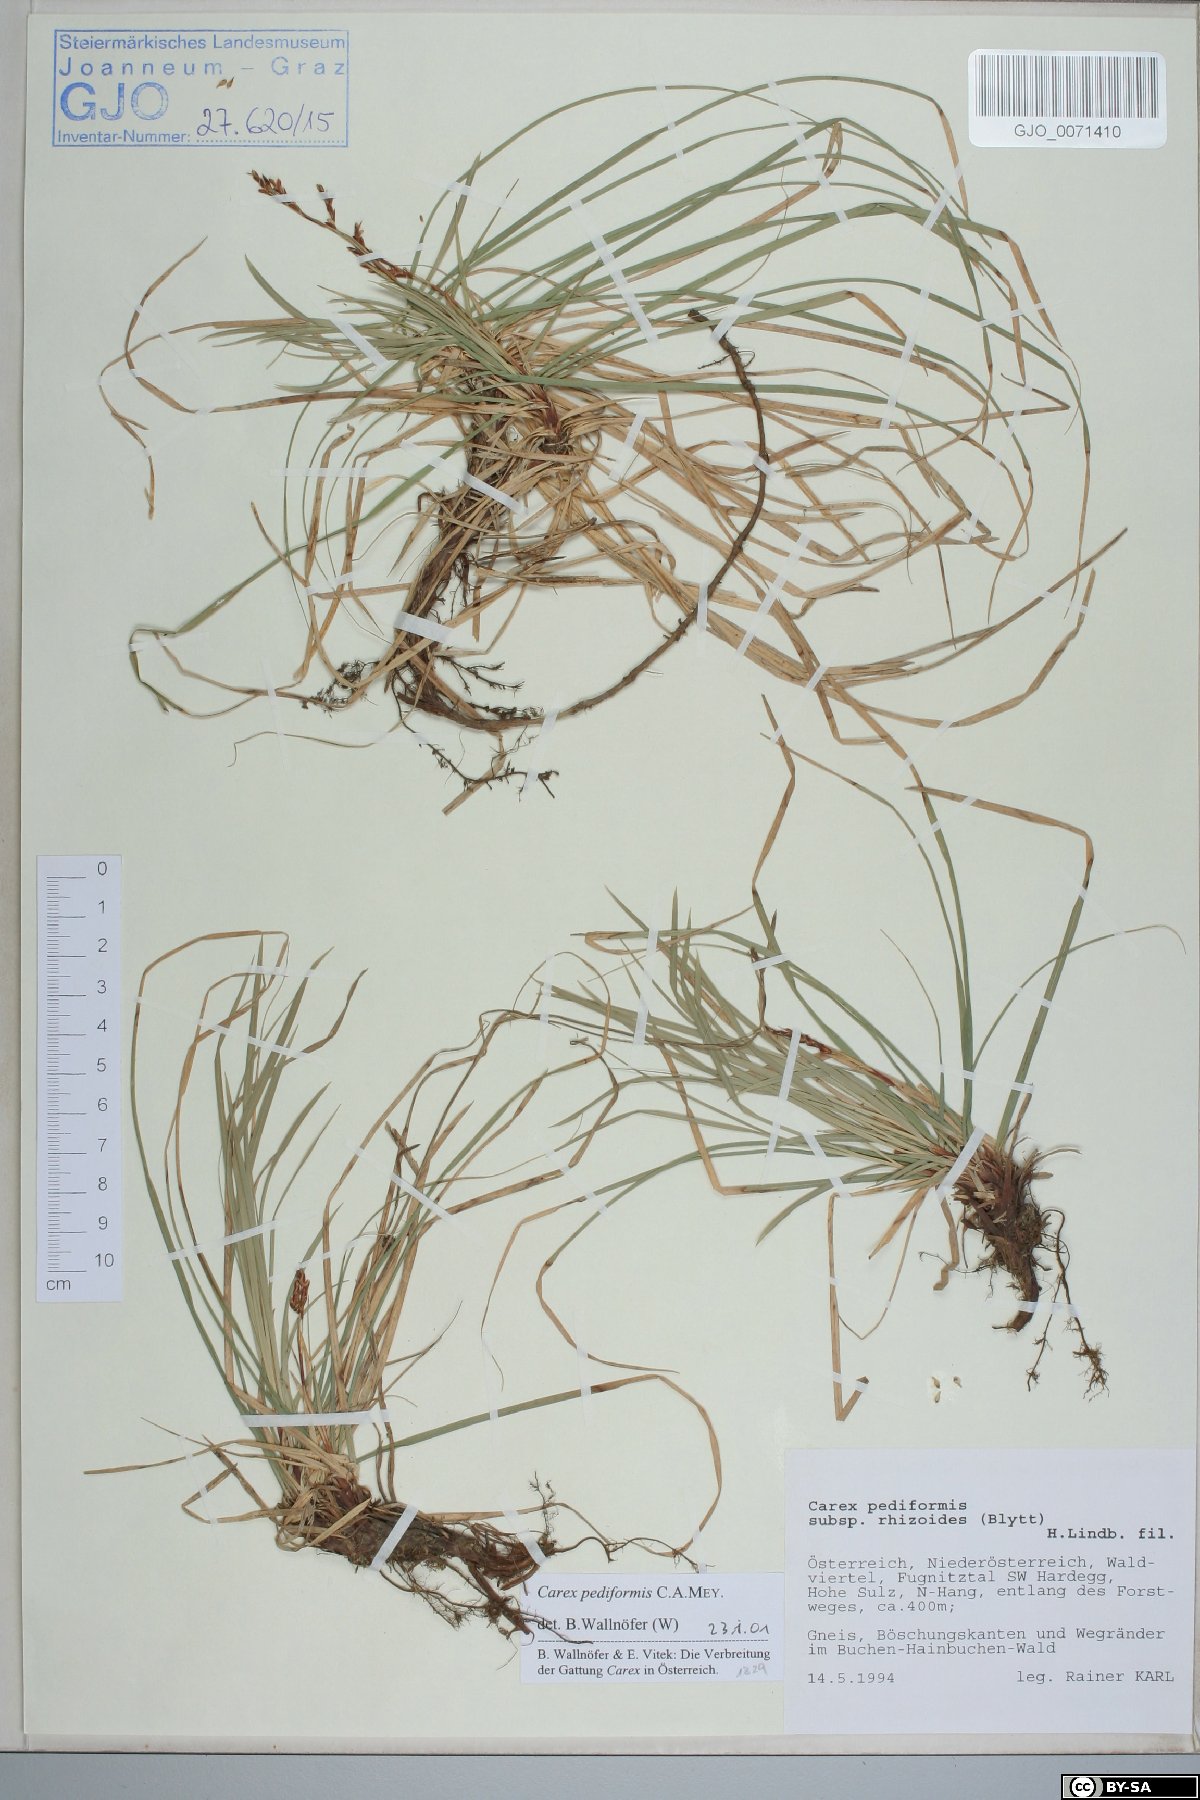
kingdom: Plantae
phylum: Tracheophyta
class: Liliopsida
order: Poales
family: Cyperaceae
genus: Carex
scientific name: Carex rhizina
